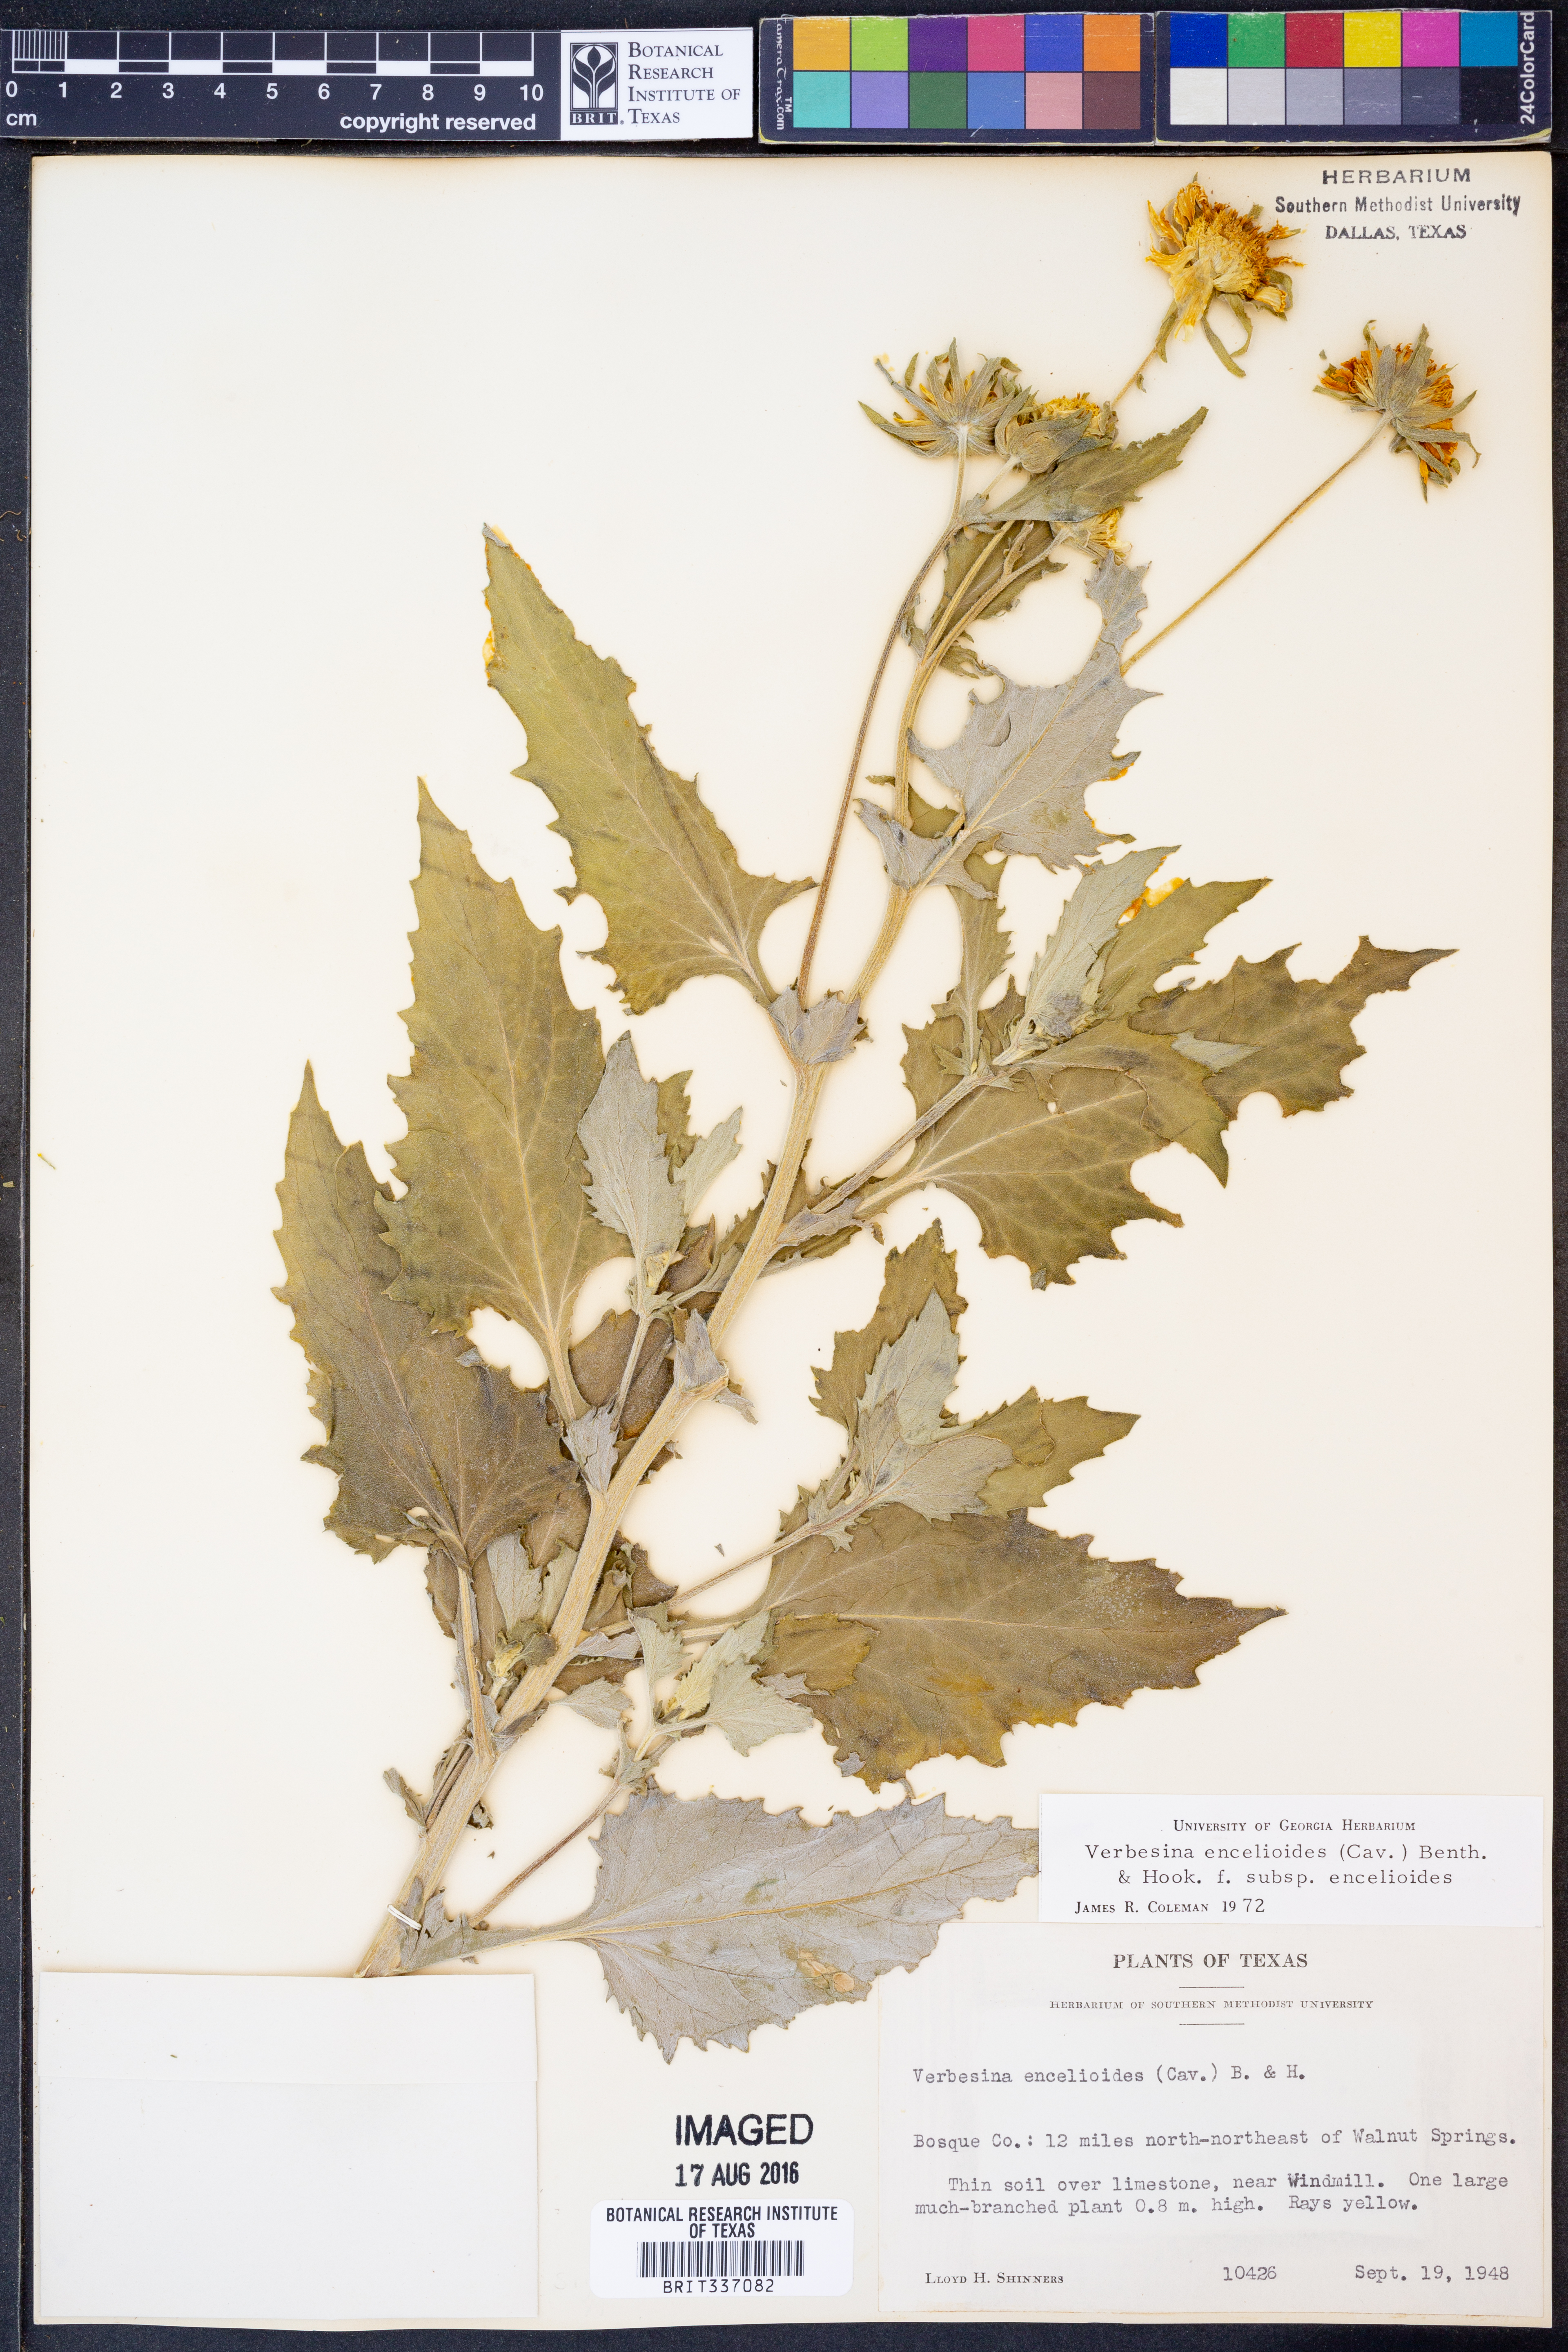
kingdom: Plantae
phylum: Tracheophyta
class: Magnoliopsida
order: Asterales
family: Asteraceae
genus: Verbesina
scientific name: Verbesina encelioides
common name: Golden crownbeard
